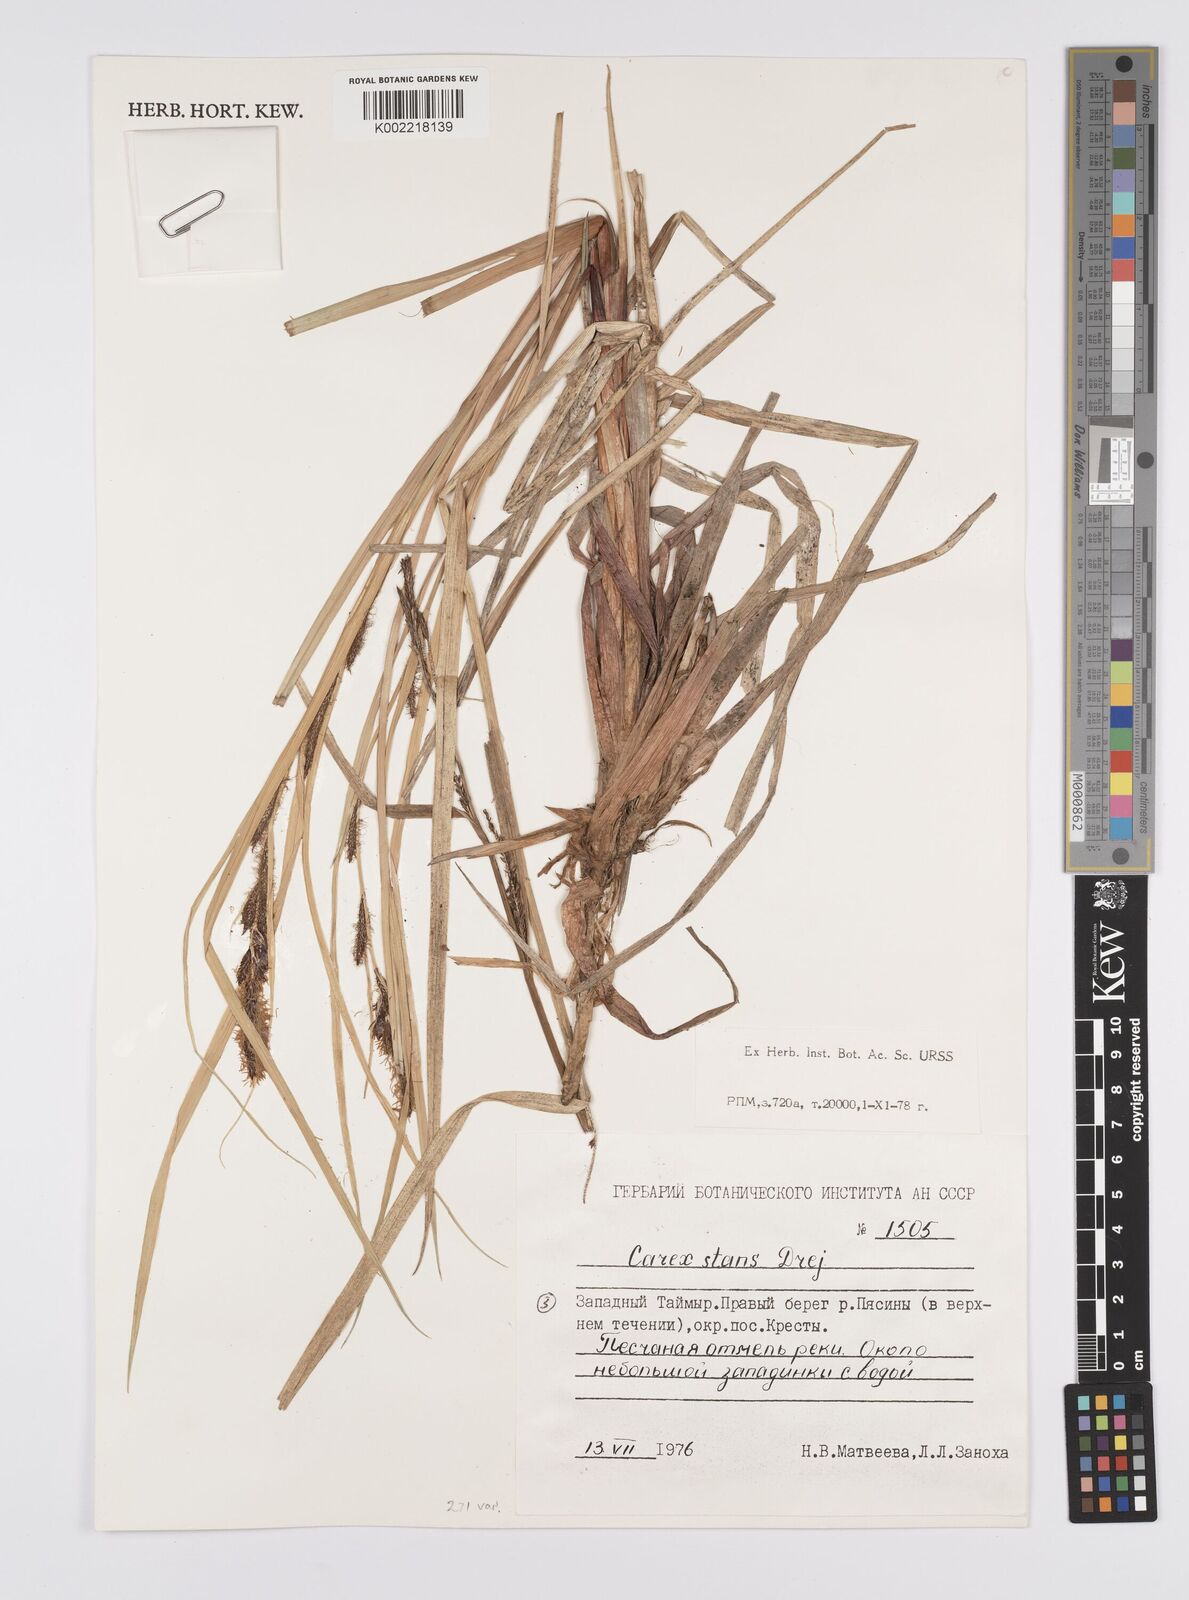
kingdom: Plantae
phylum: Tracheophyta
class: Liliopsida
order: Poales
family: Cyperaceae
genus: Carex
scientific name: Carex aquatilis
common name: Water sedge
